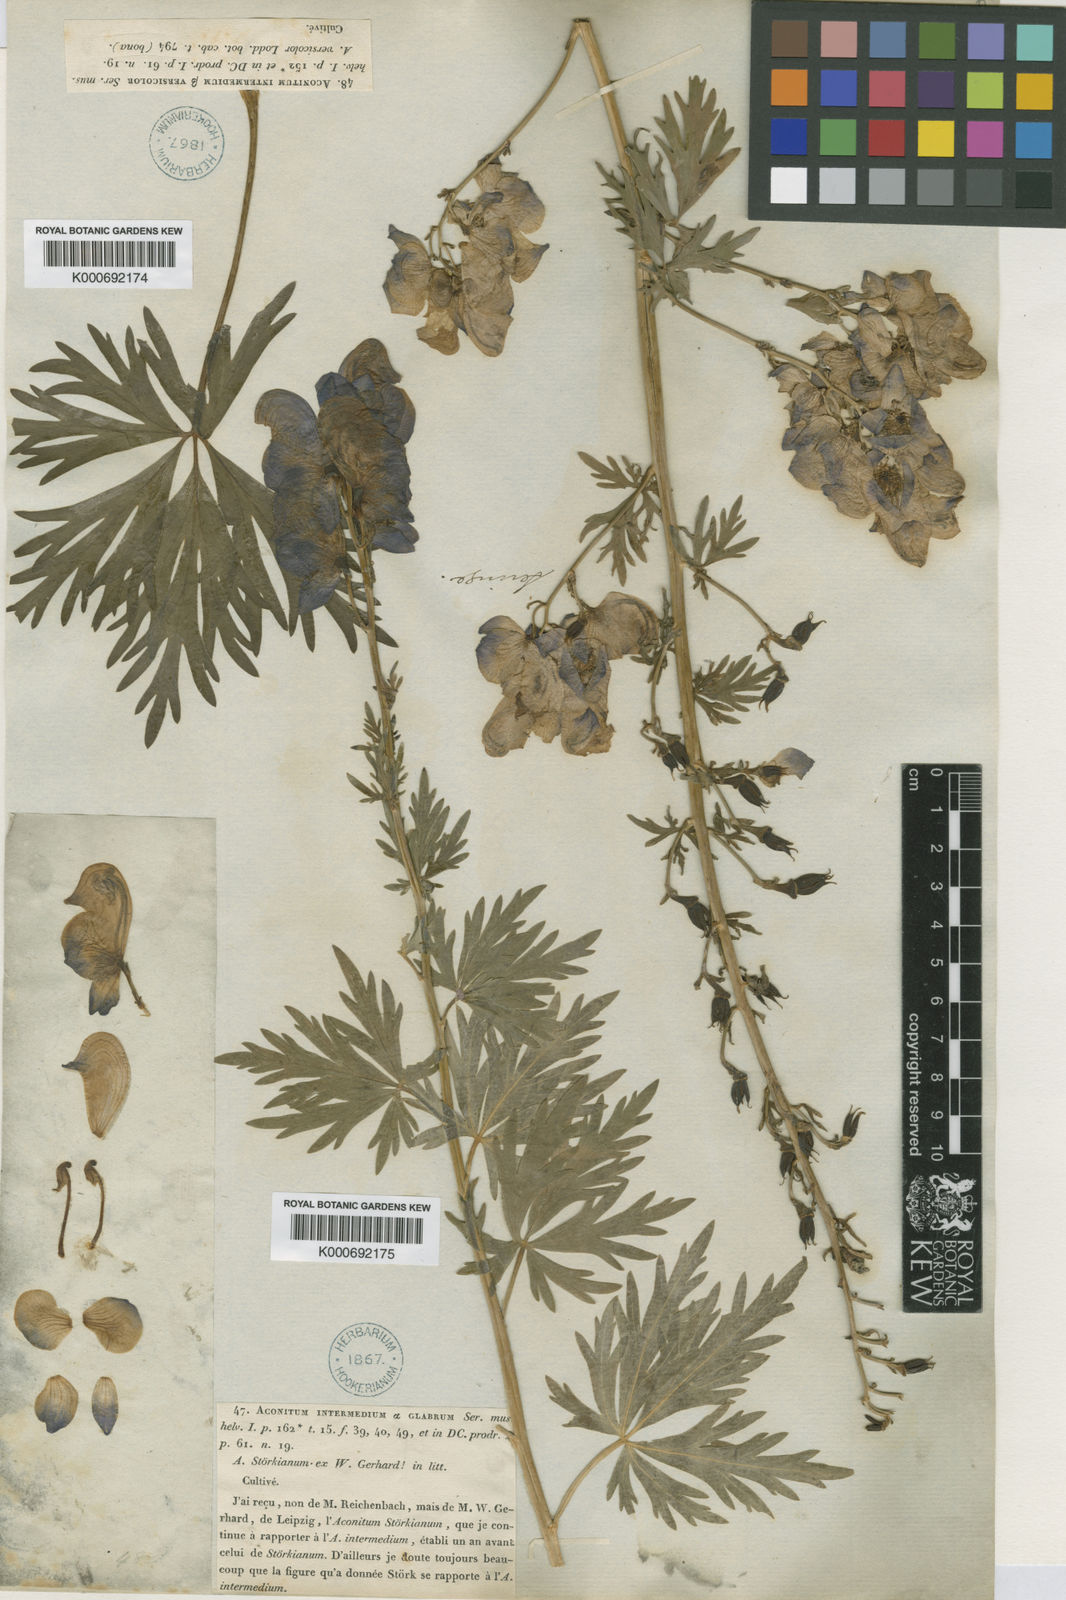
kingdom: Plantae
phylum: Tracheophyta
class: Magnoliopsida
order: Ranunculales
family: Ranunculaceae
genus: Aconitum
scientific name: Aconitum variegatum
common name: Manchurian monkshood
